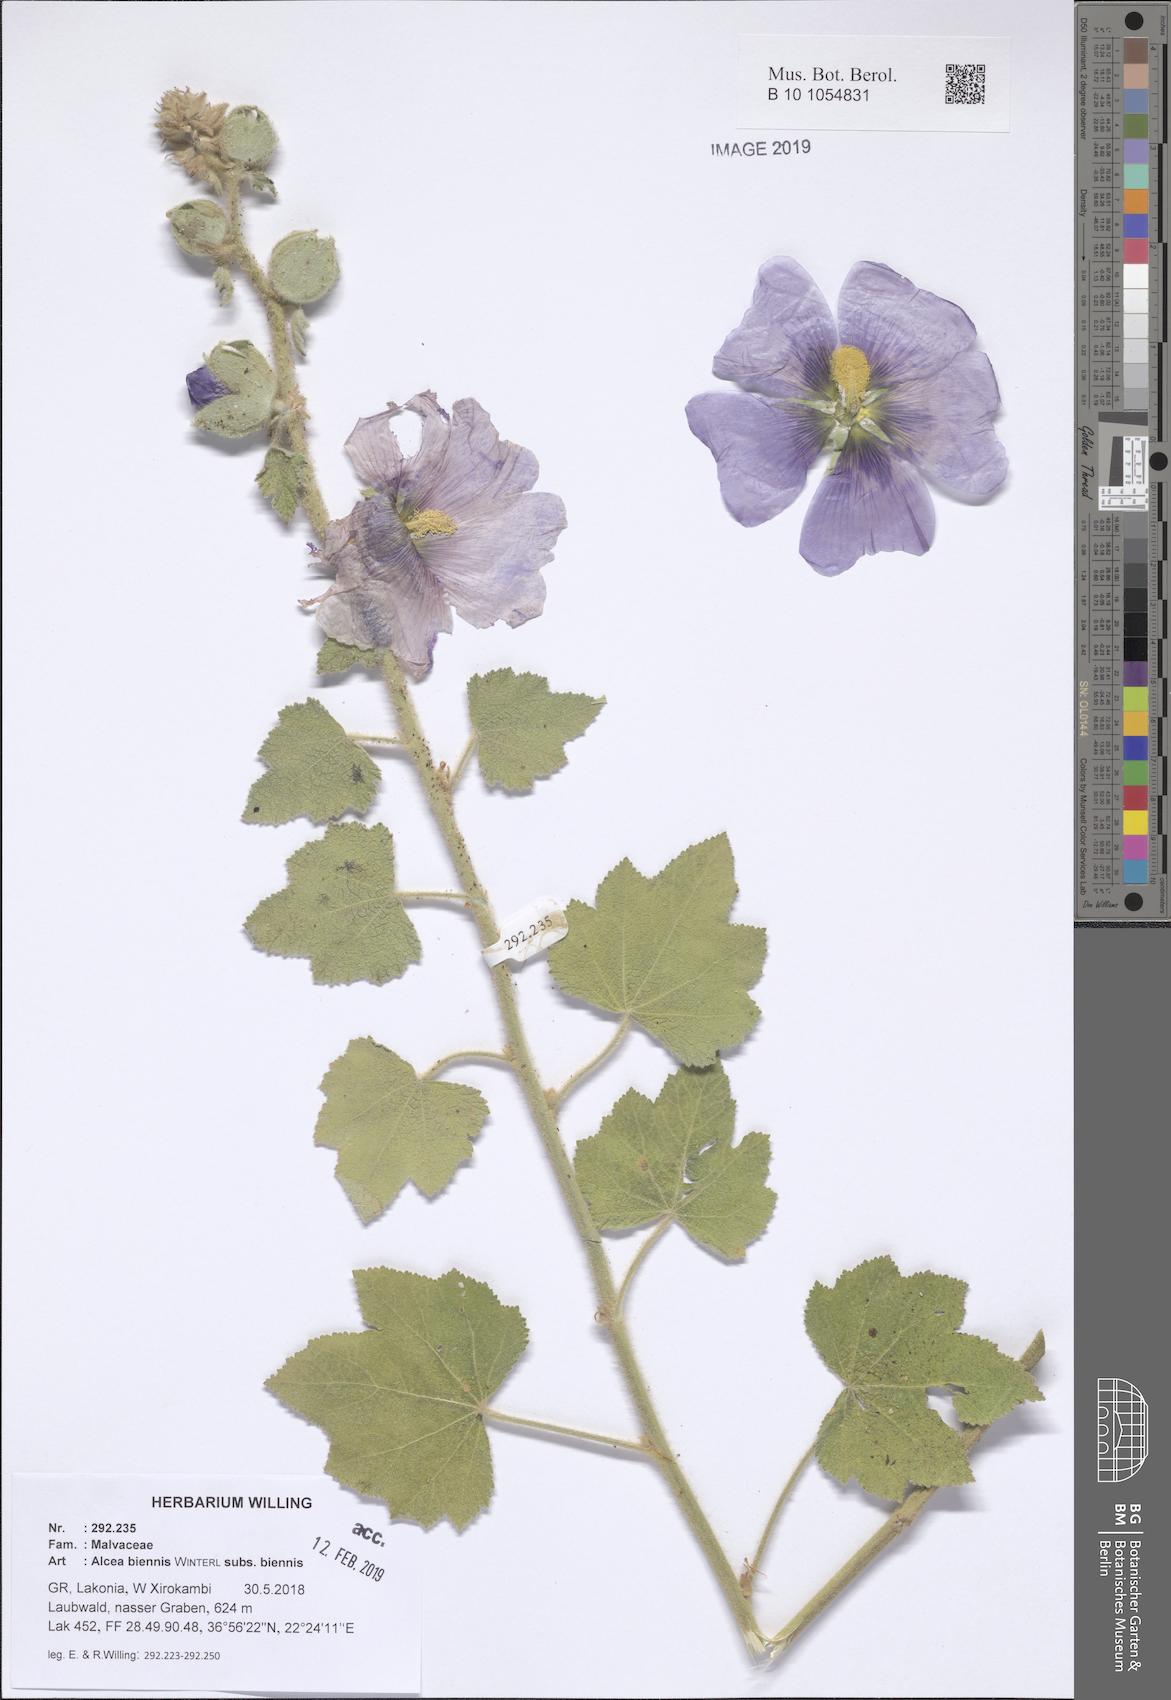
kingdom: Plantae
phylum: Tracheophyta
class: Magnoliopsida
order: Malvales
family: Malvaceae
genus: Alcea
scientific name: Alcea biennis
